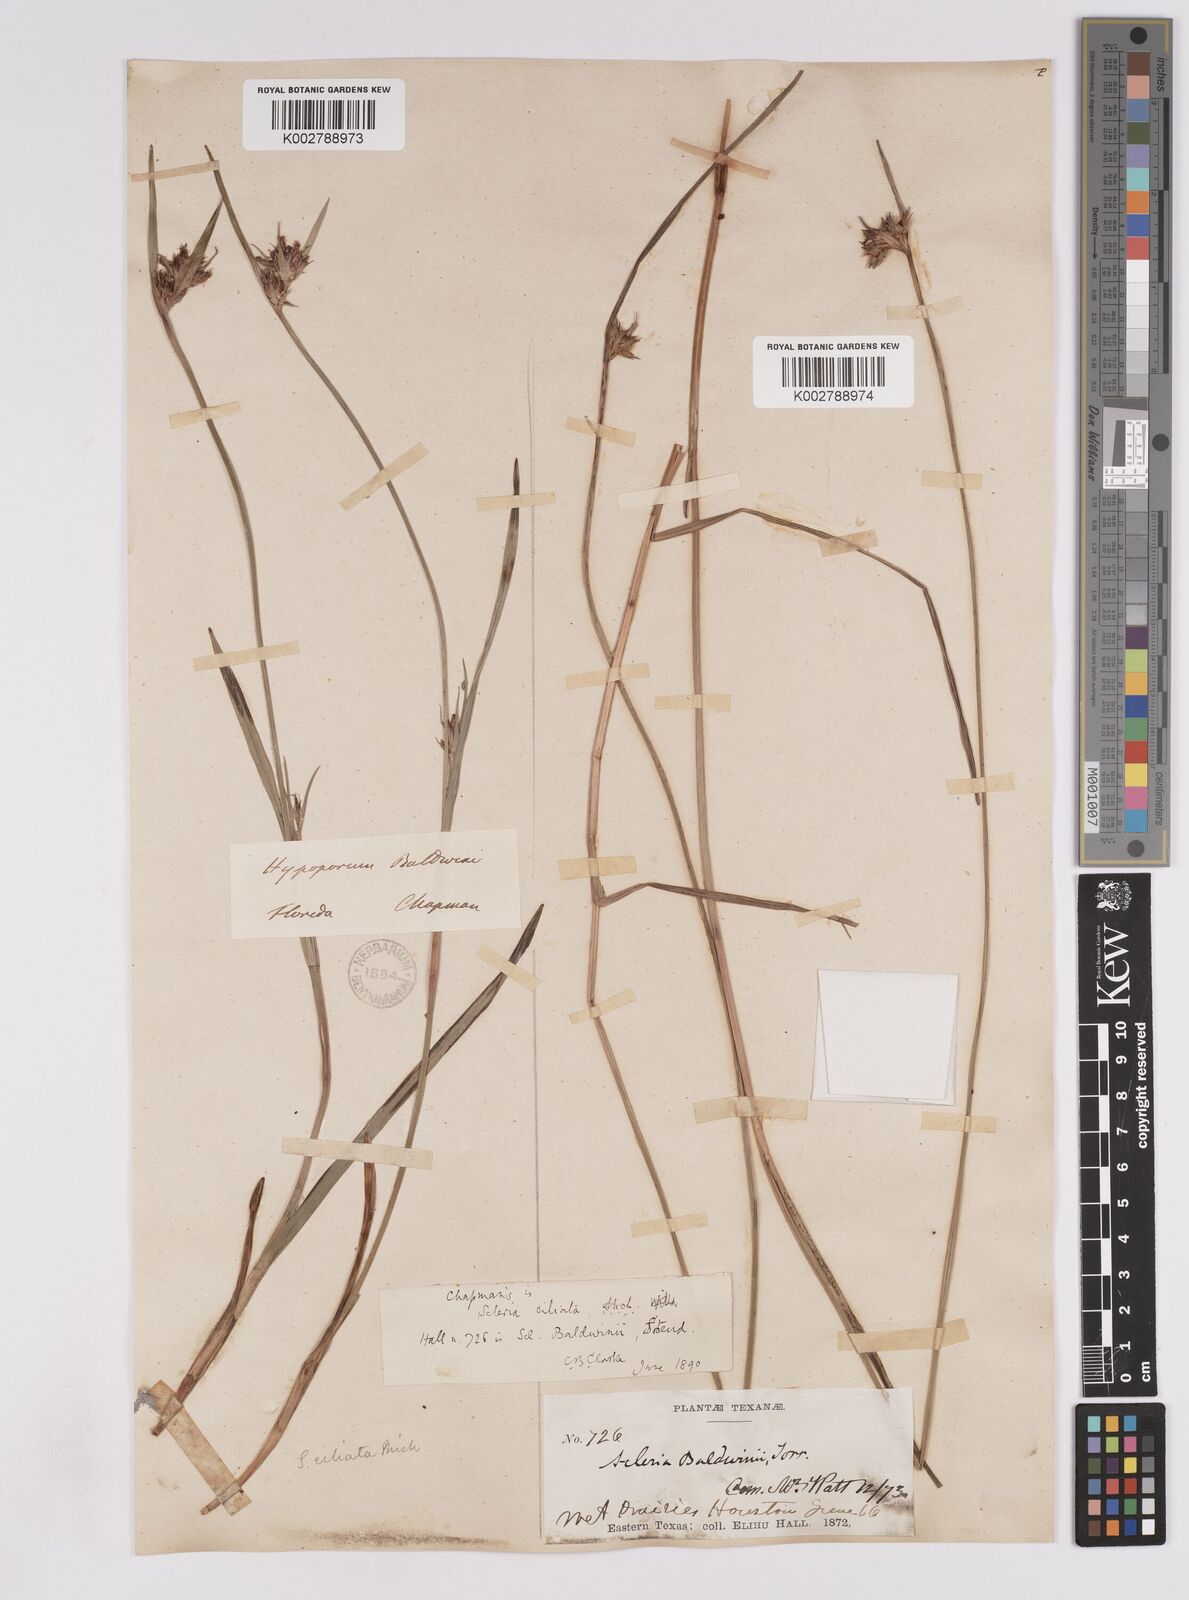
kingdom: Plantae
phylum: Tracheophyta
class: Liliopsida
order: Poales
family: Cyperaceae
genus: Scleria
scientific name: Scleria baldwinii
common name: Baldwin's nutrush
